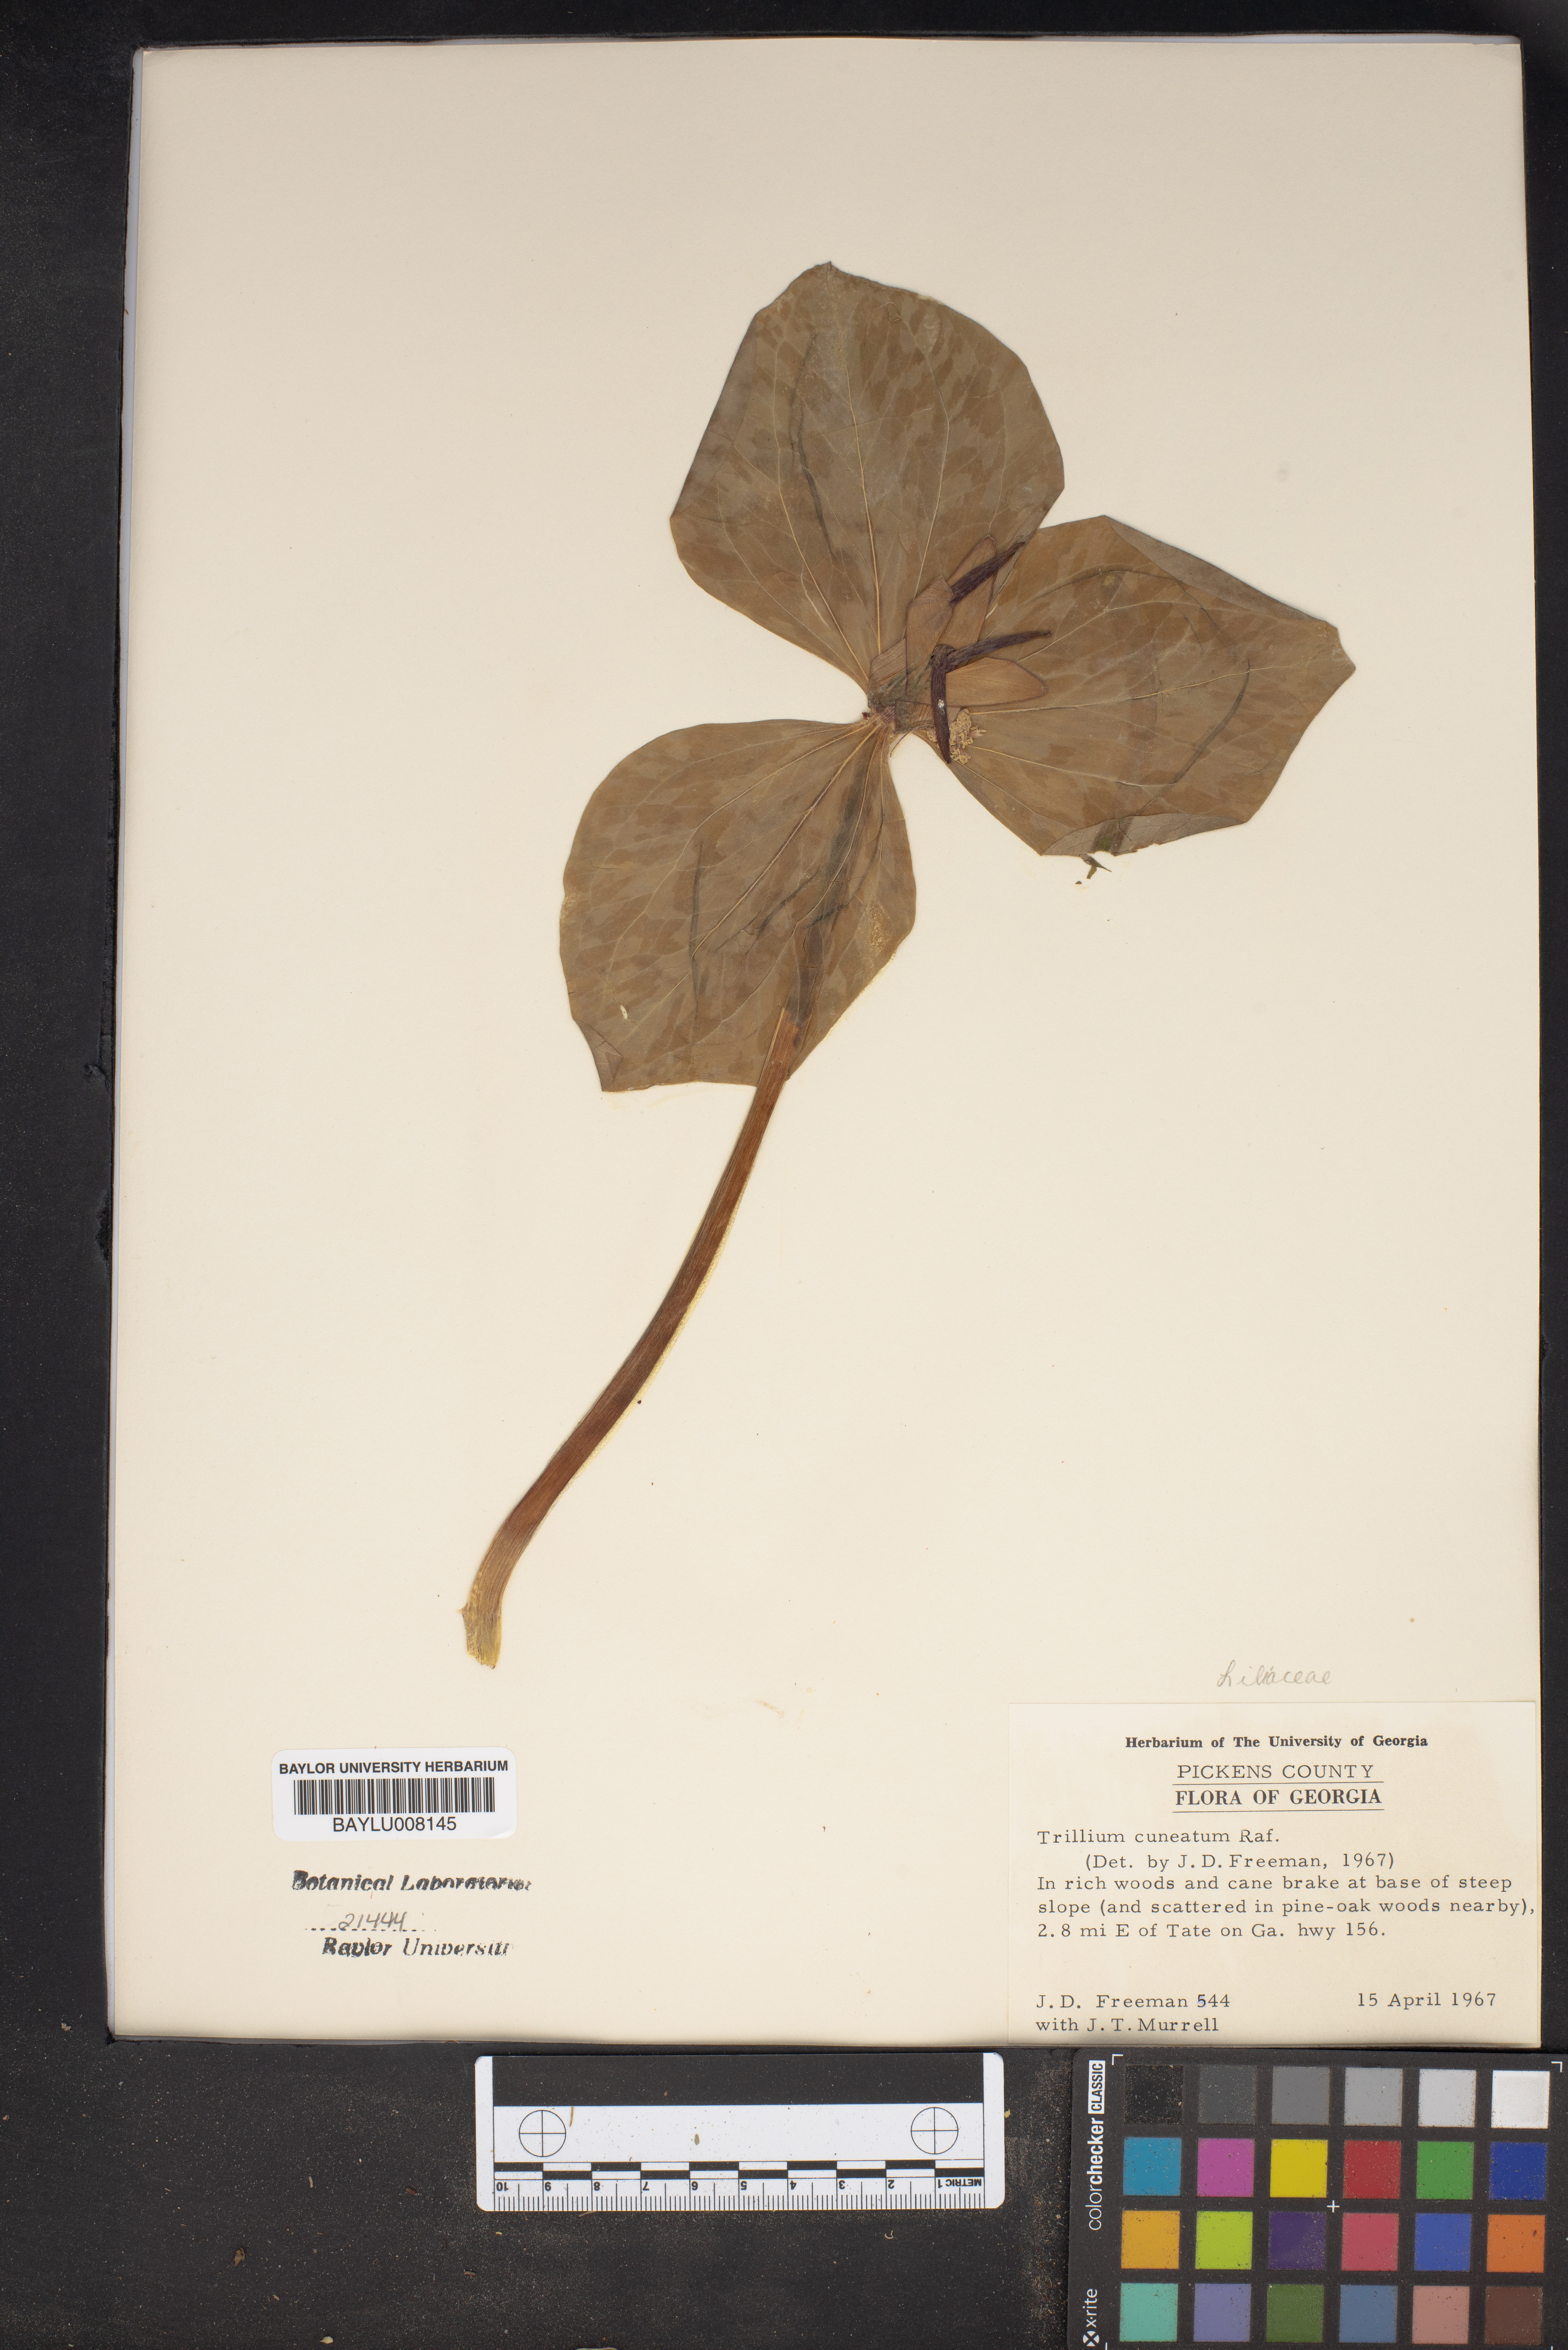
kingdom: Plantae
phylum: Tracheophyta
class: Liliopsida
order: Liliales
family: Melanthiaceae
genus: Trillium
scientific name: Trillium cuneatum
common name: Cuneate trillium
